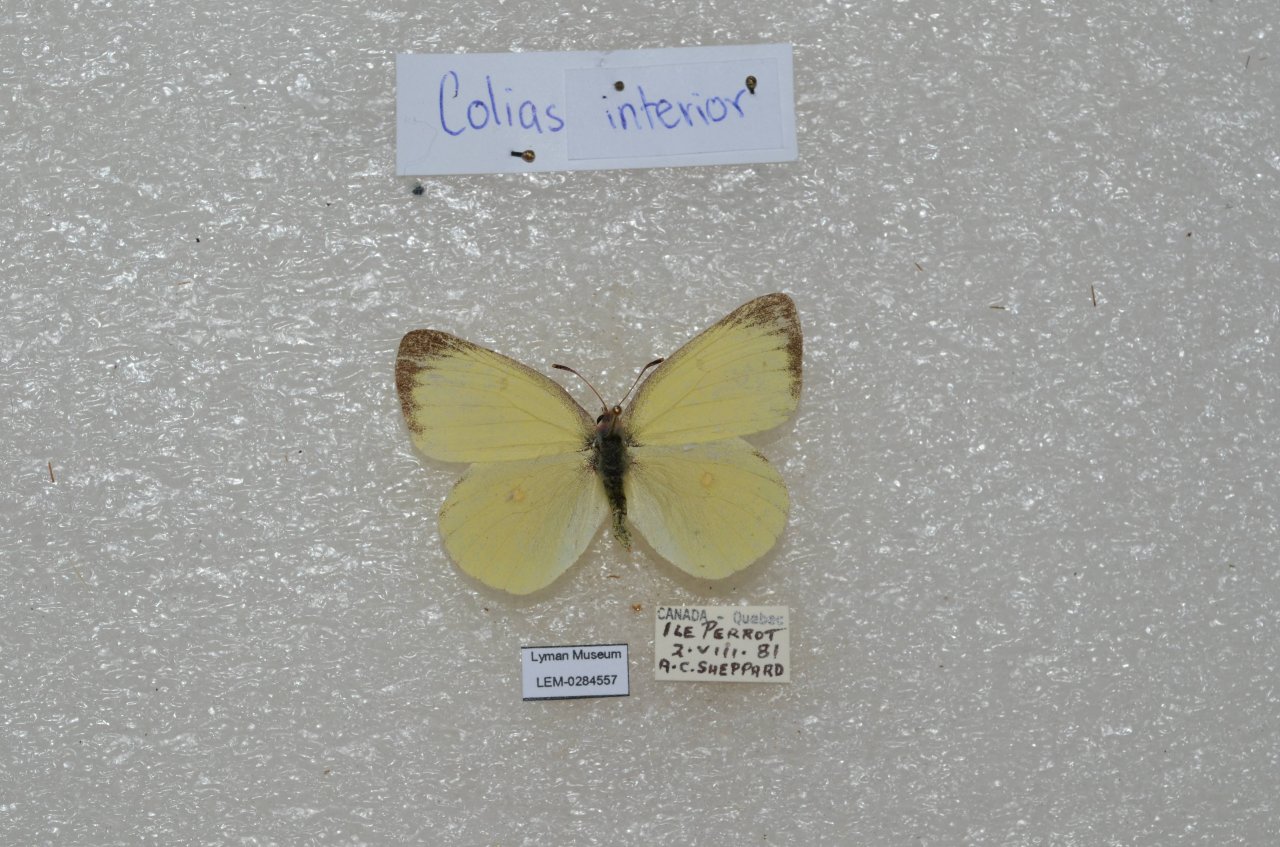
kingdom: Animalia
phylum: Arthropoda
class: Insecta
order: Lepidoptera
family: Pieridae
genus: Colias
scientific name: Colias interior
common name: Pink-edged Sulphur
